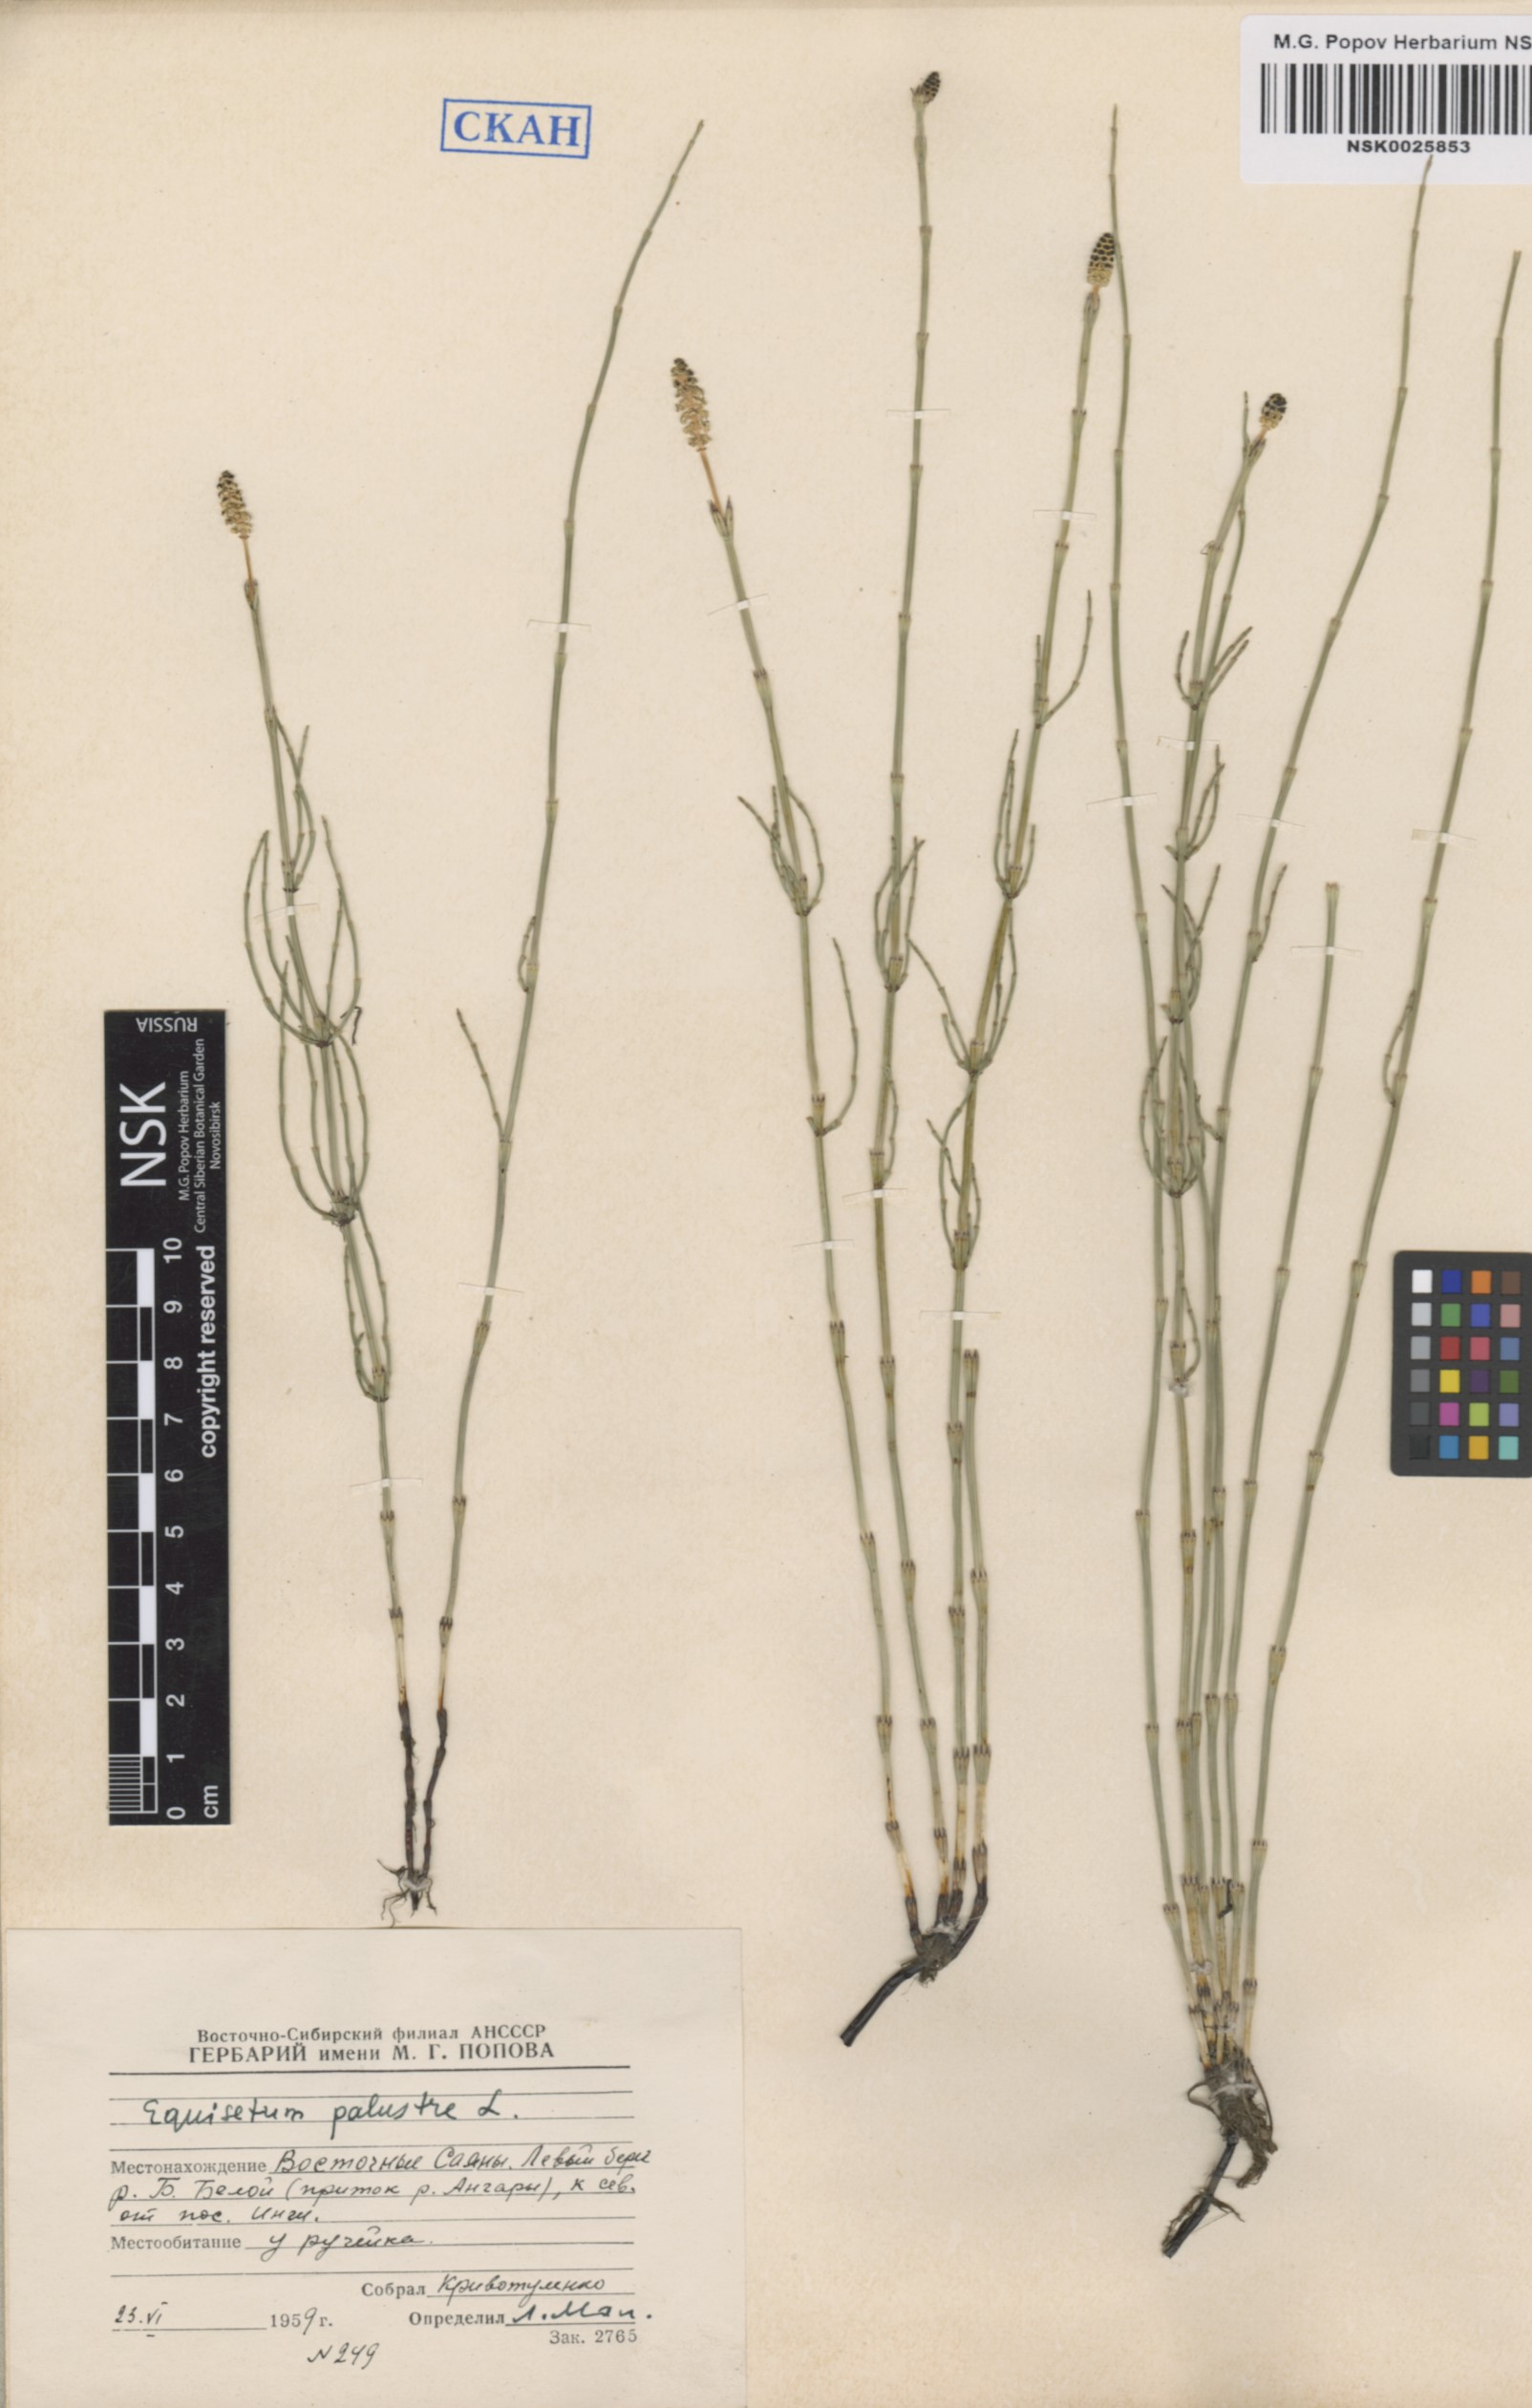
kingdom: Plantae
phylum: Tracheophyta
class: Polypodiopsida
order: Equisetales
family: Equisetaceae
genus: Equisetum
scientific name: Equisetum palustre
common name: Marsh horsetail
